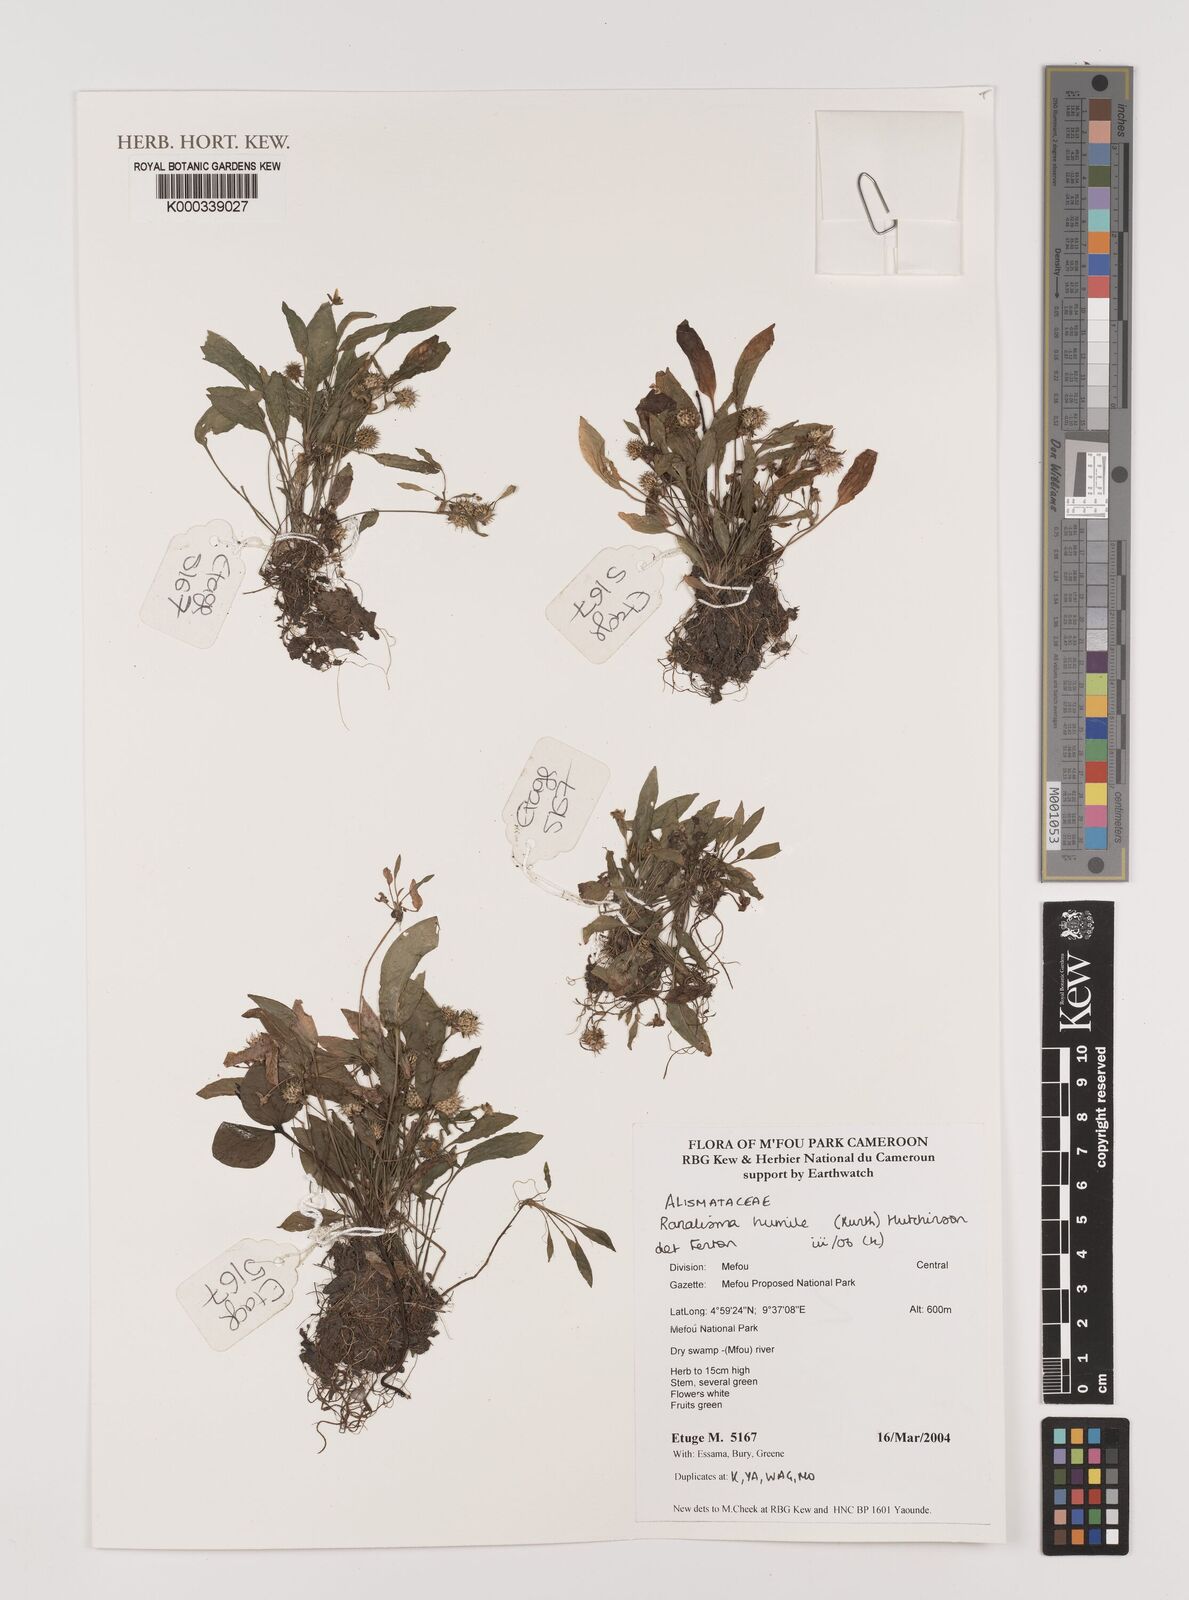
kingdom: Plantae
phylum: Tracheophyta
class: Liliopsida
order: Alismatales
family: Alismataceae
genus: Ranalisma
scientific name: Ranalisma humile
